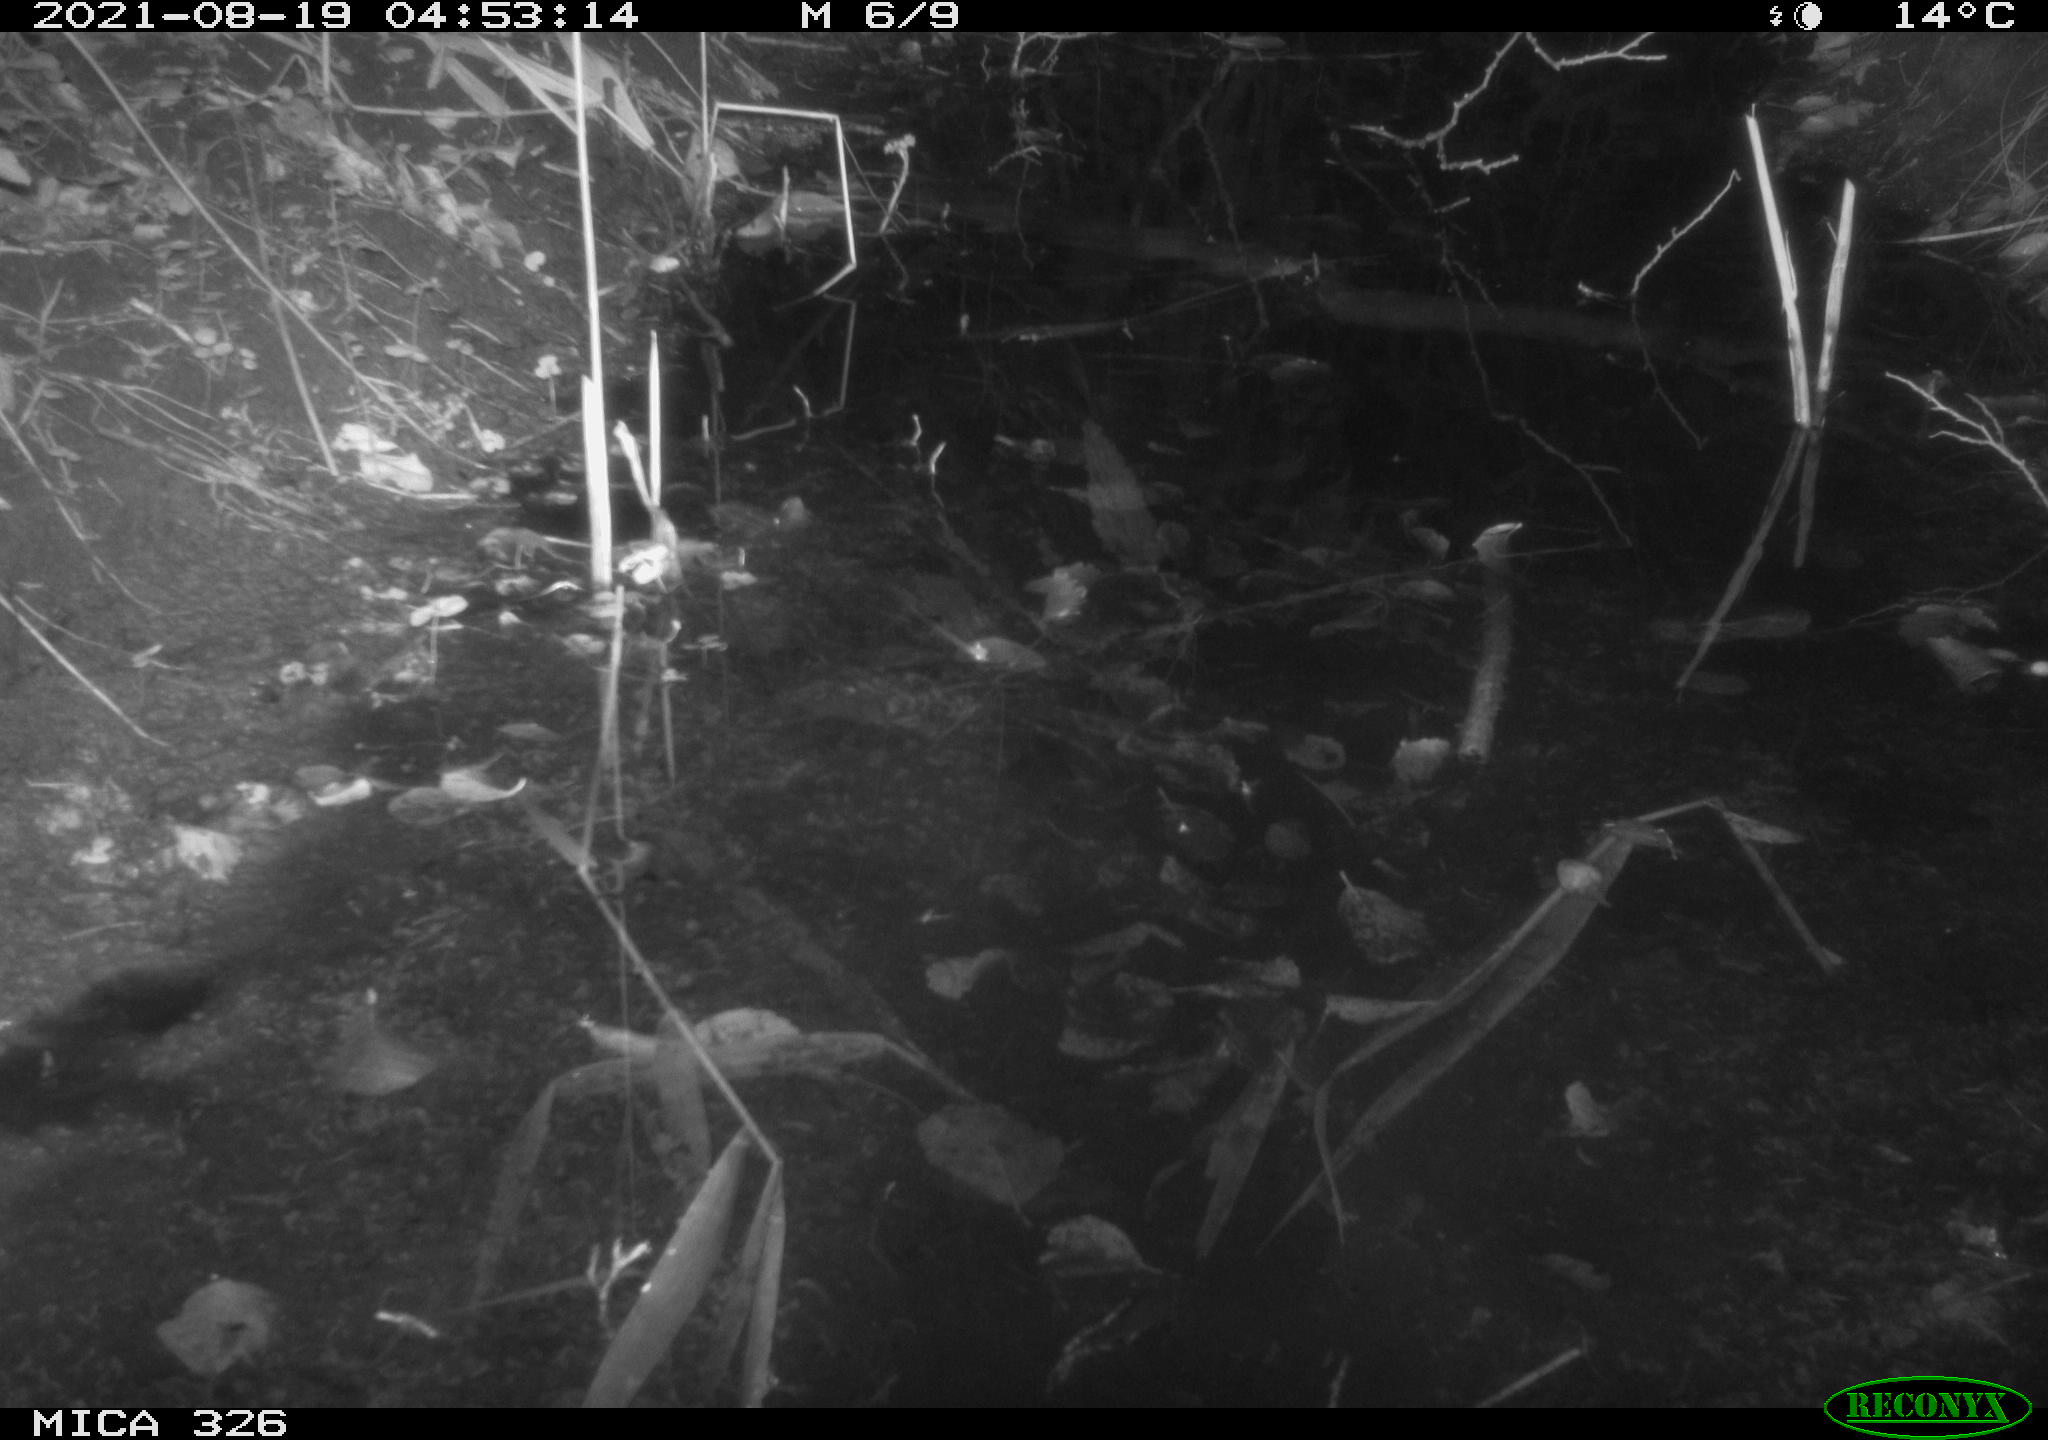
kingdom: Animalia
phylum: Chordata
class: Mammalia
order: Rodentia
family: Muridae
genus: Rattus
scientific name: Rattus norvegicus
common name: Brown rat
